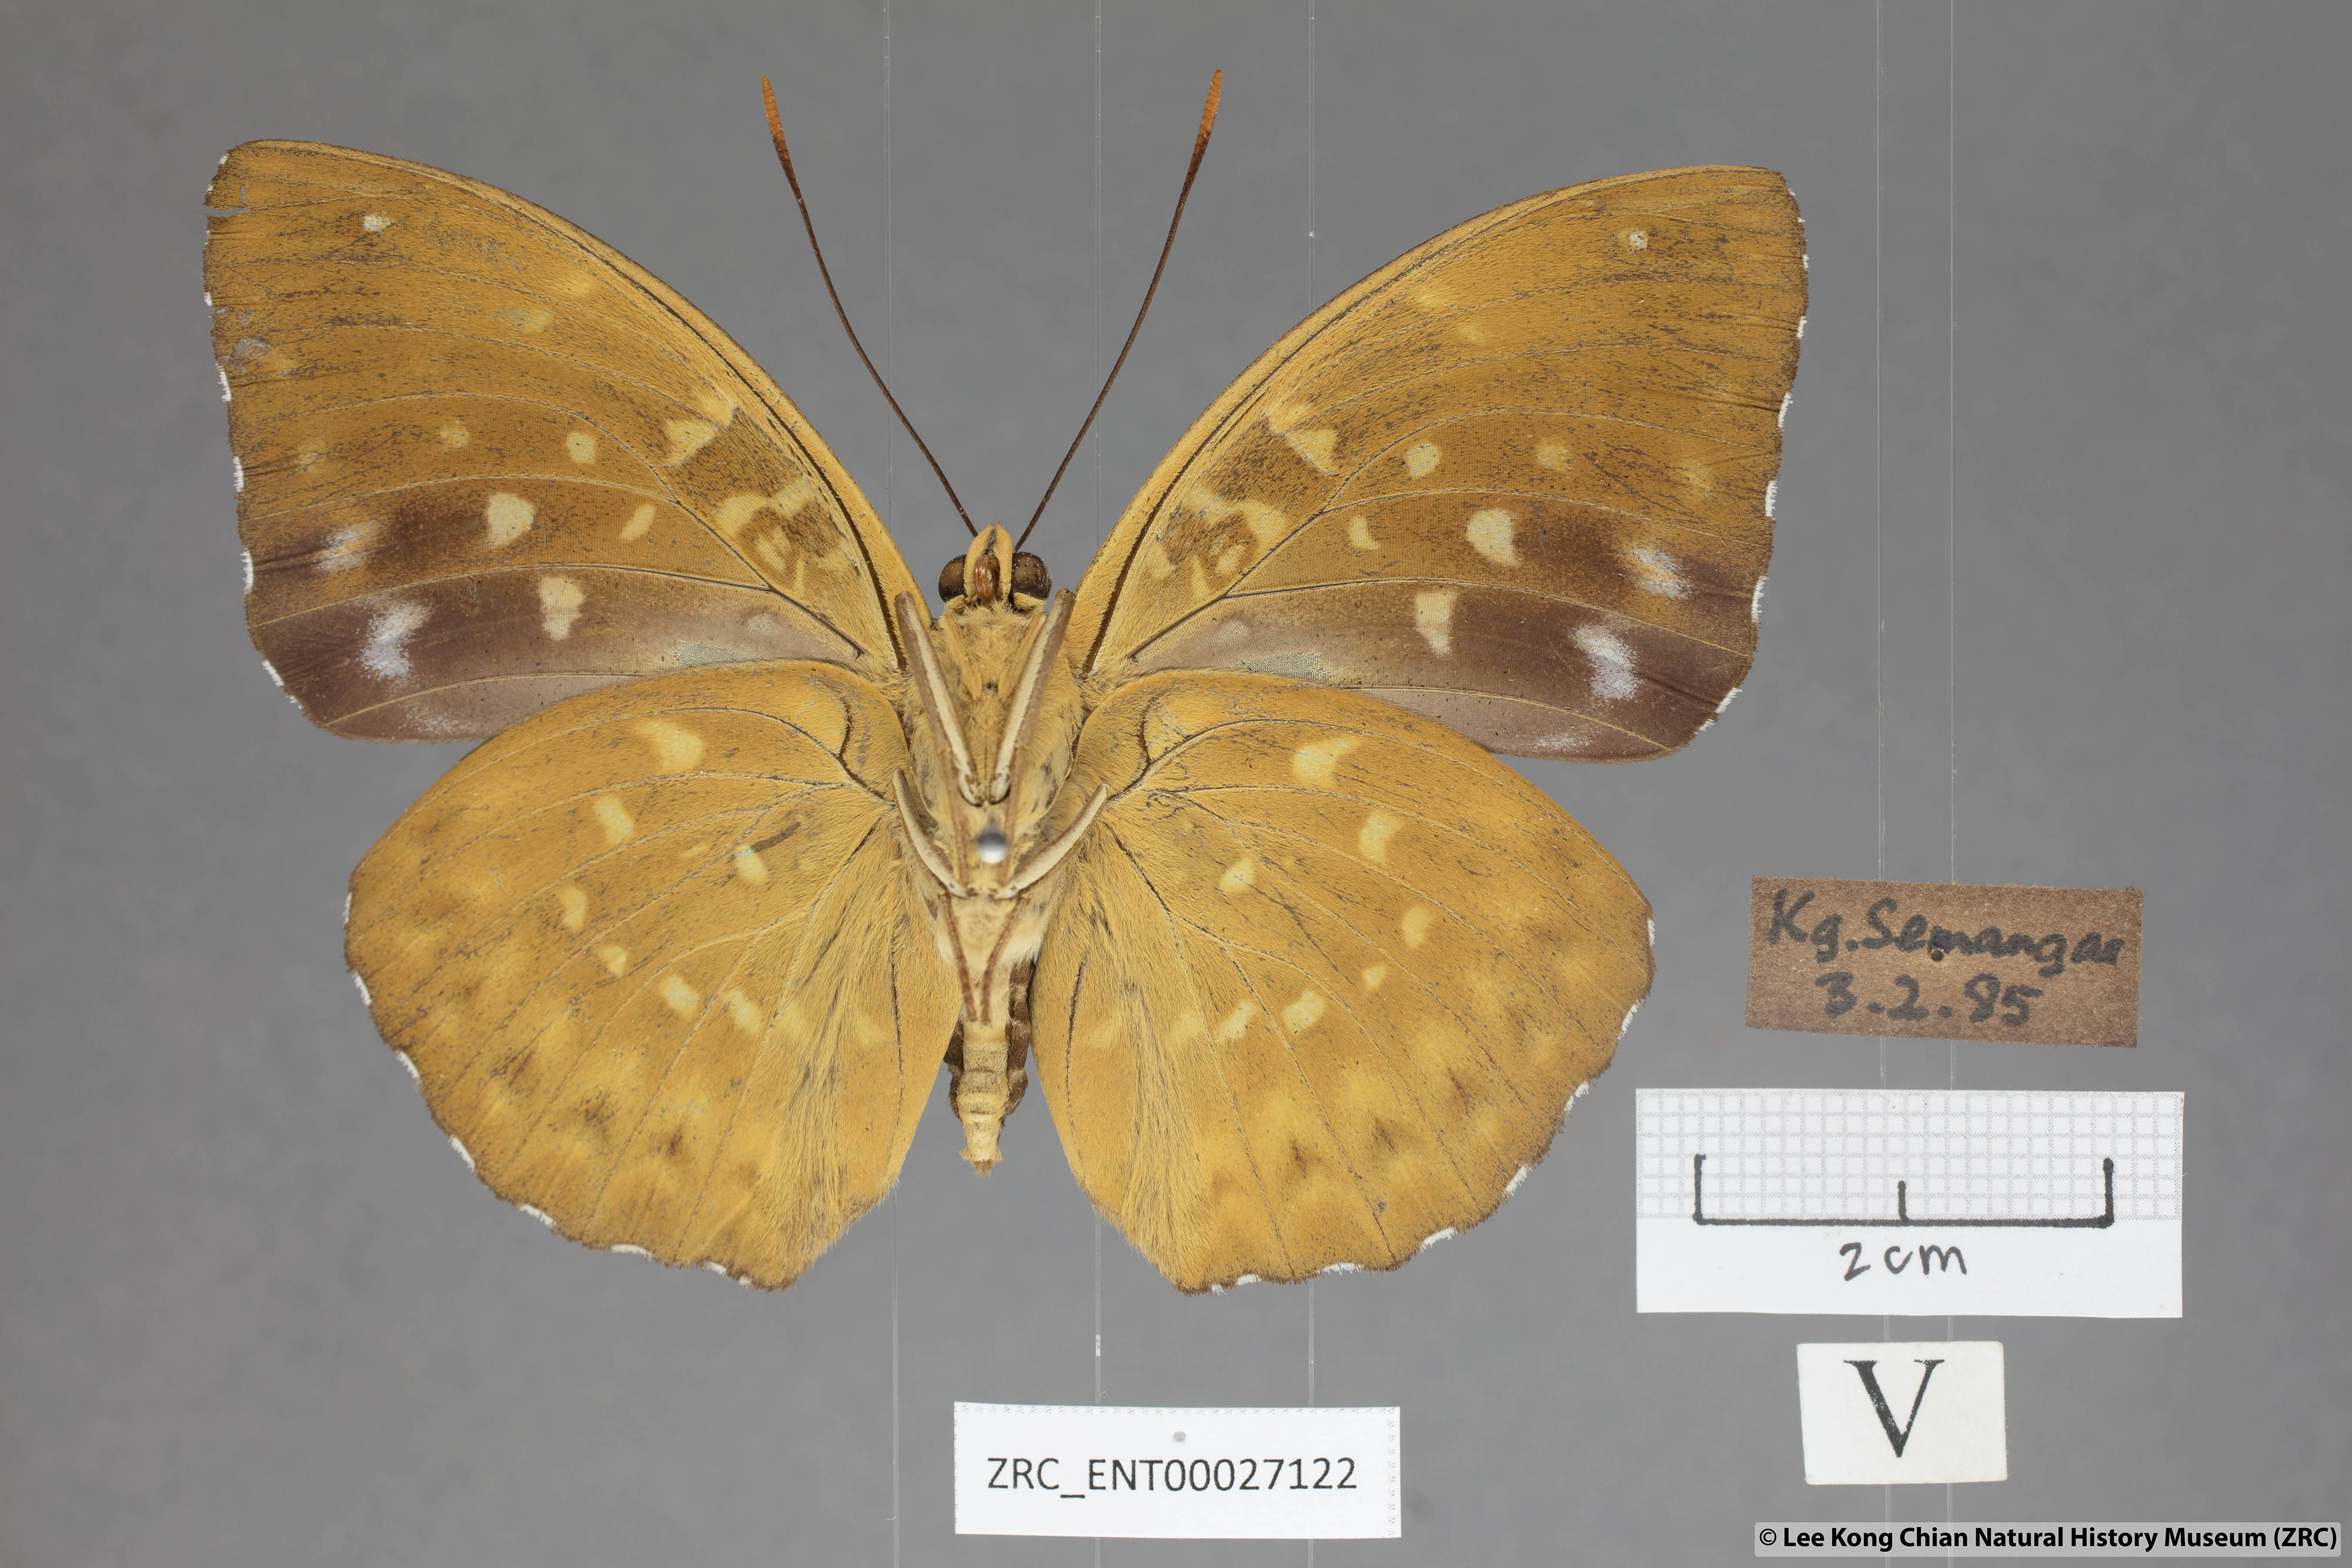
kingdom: Animalia
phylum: Arthropoda
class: Insecta
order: Lepidoptera
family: Nymphalidae
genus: Lexias
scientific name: Lexias pardalis
